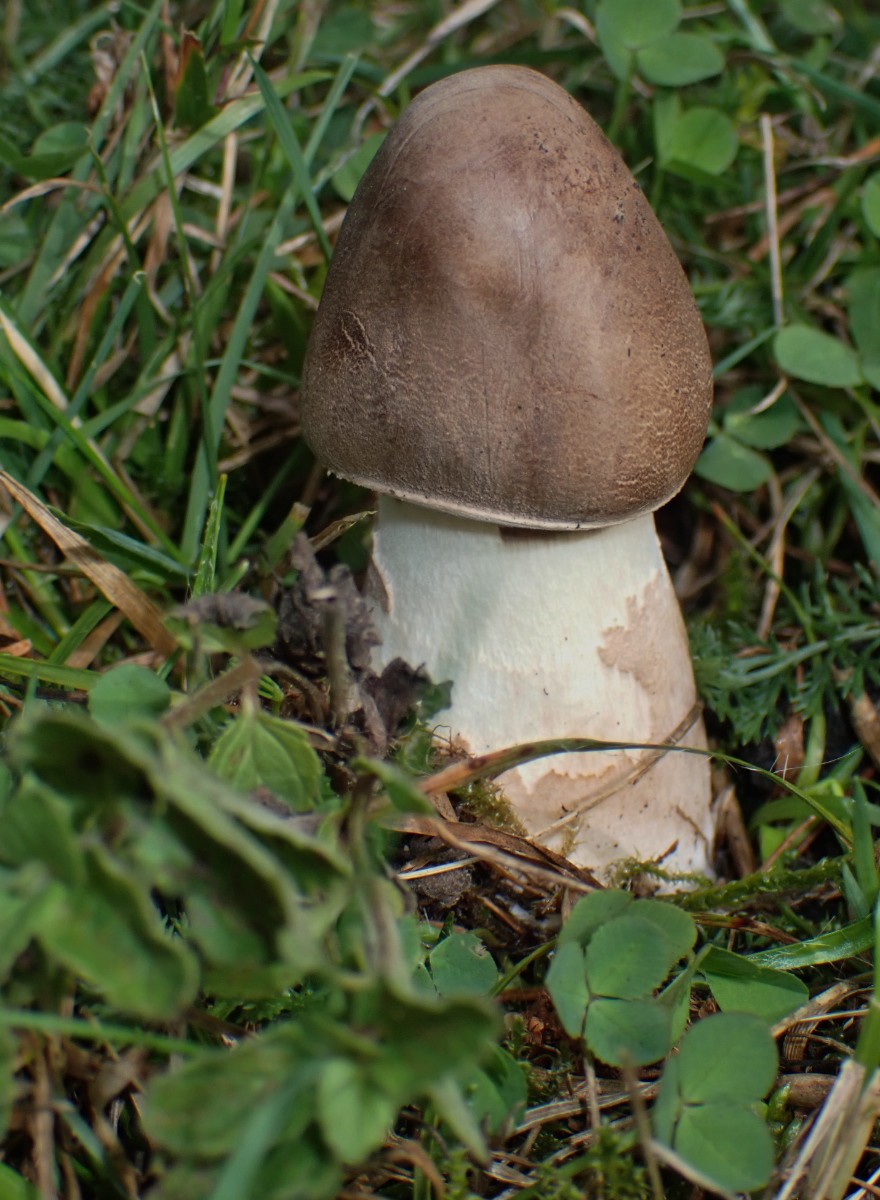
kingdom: Fungi
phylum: Basidiomycota
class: Agaricomycetes
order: Agaricales
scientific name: Agaricales
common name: champignonordenen
